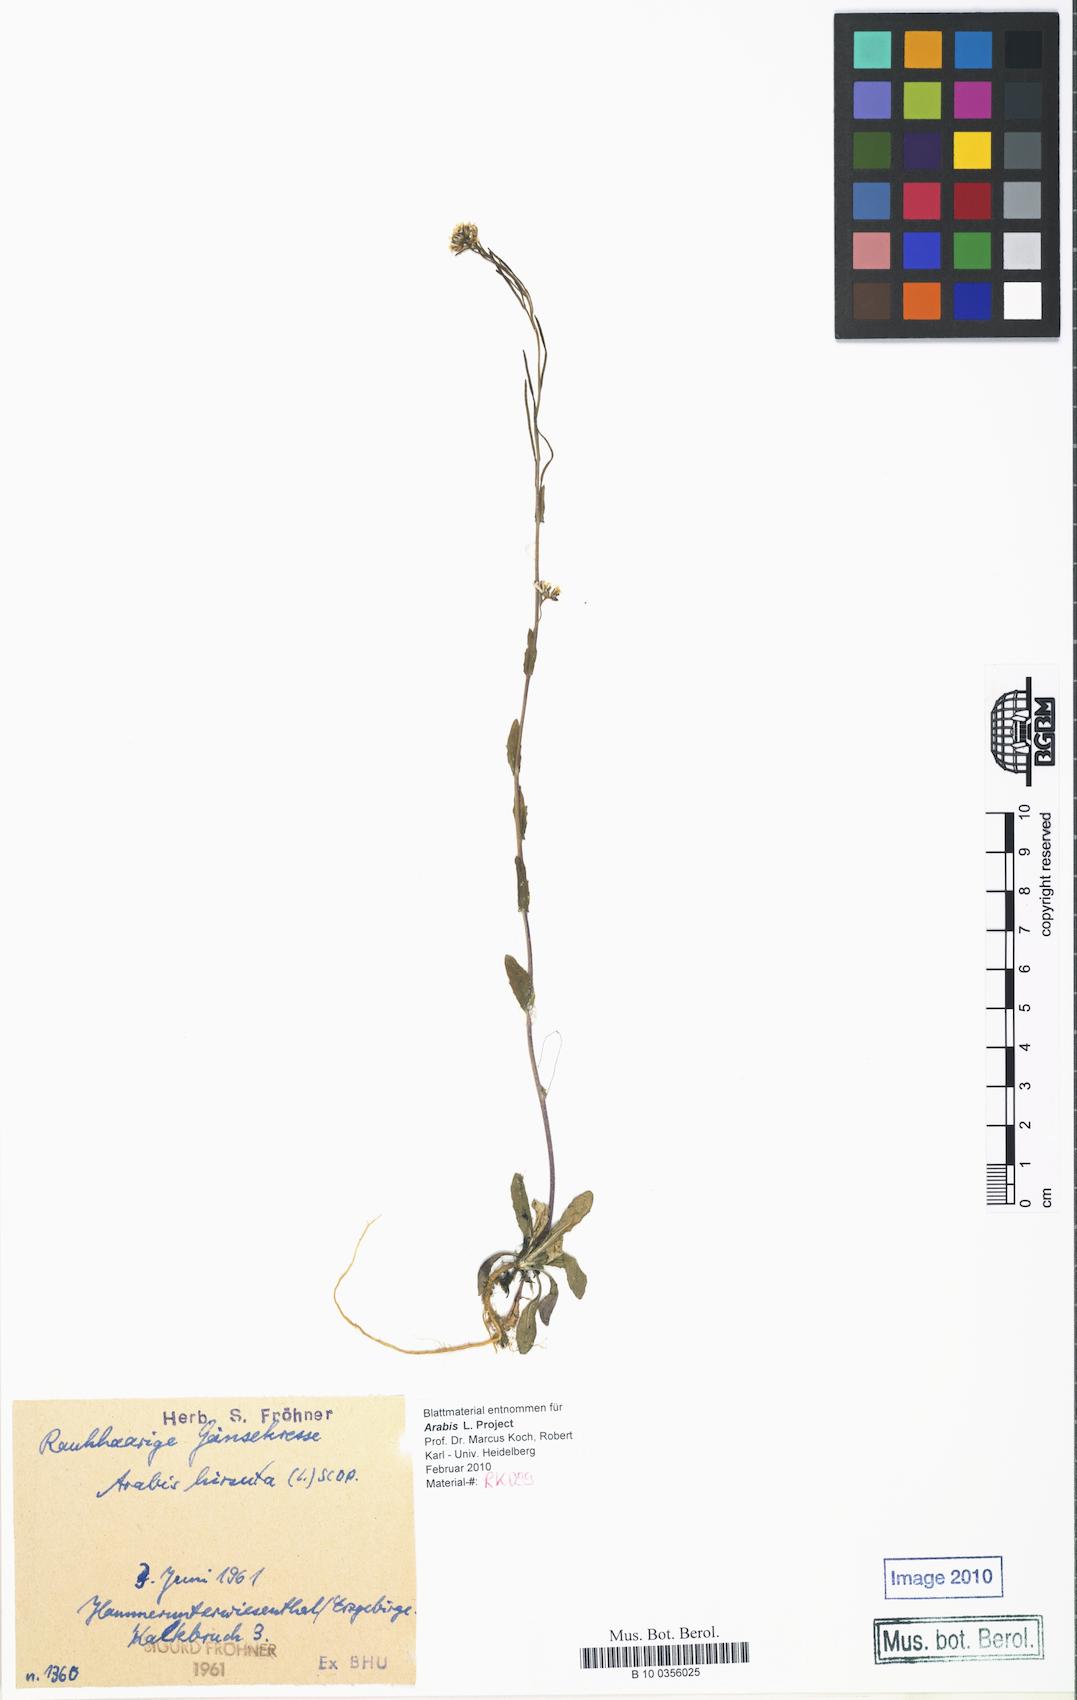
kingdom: Plantae
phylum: Tracheophyta
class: Magnoliopsida
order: Brassicales
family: Brassicaceae
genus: Arabis
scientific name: Arabis hirsuta
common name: Hairy rock-cress
